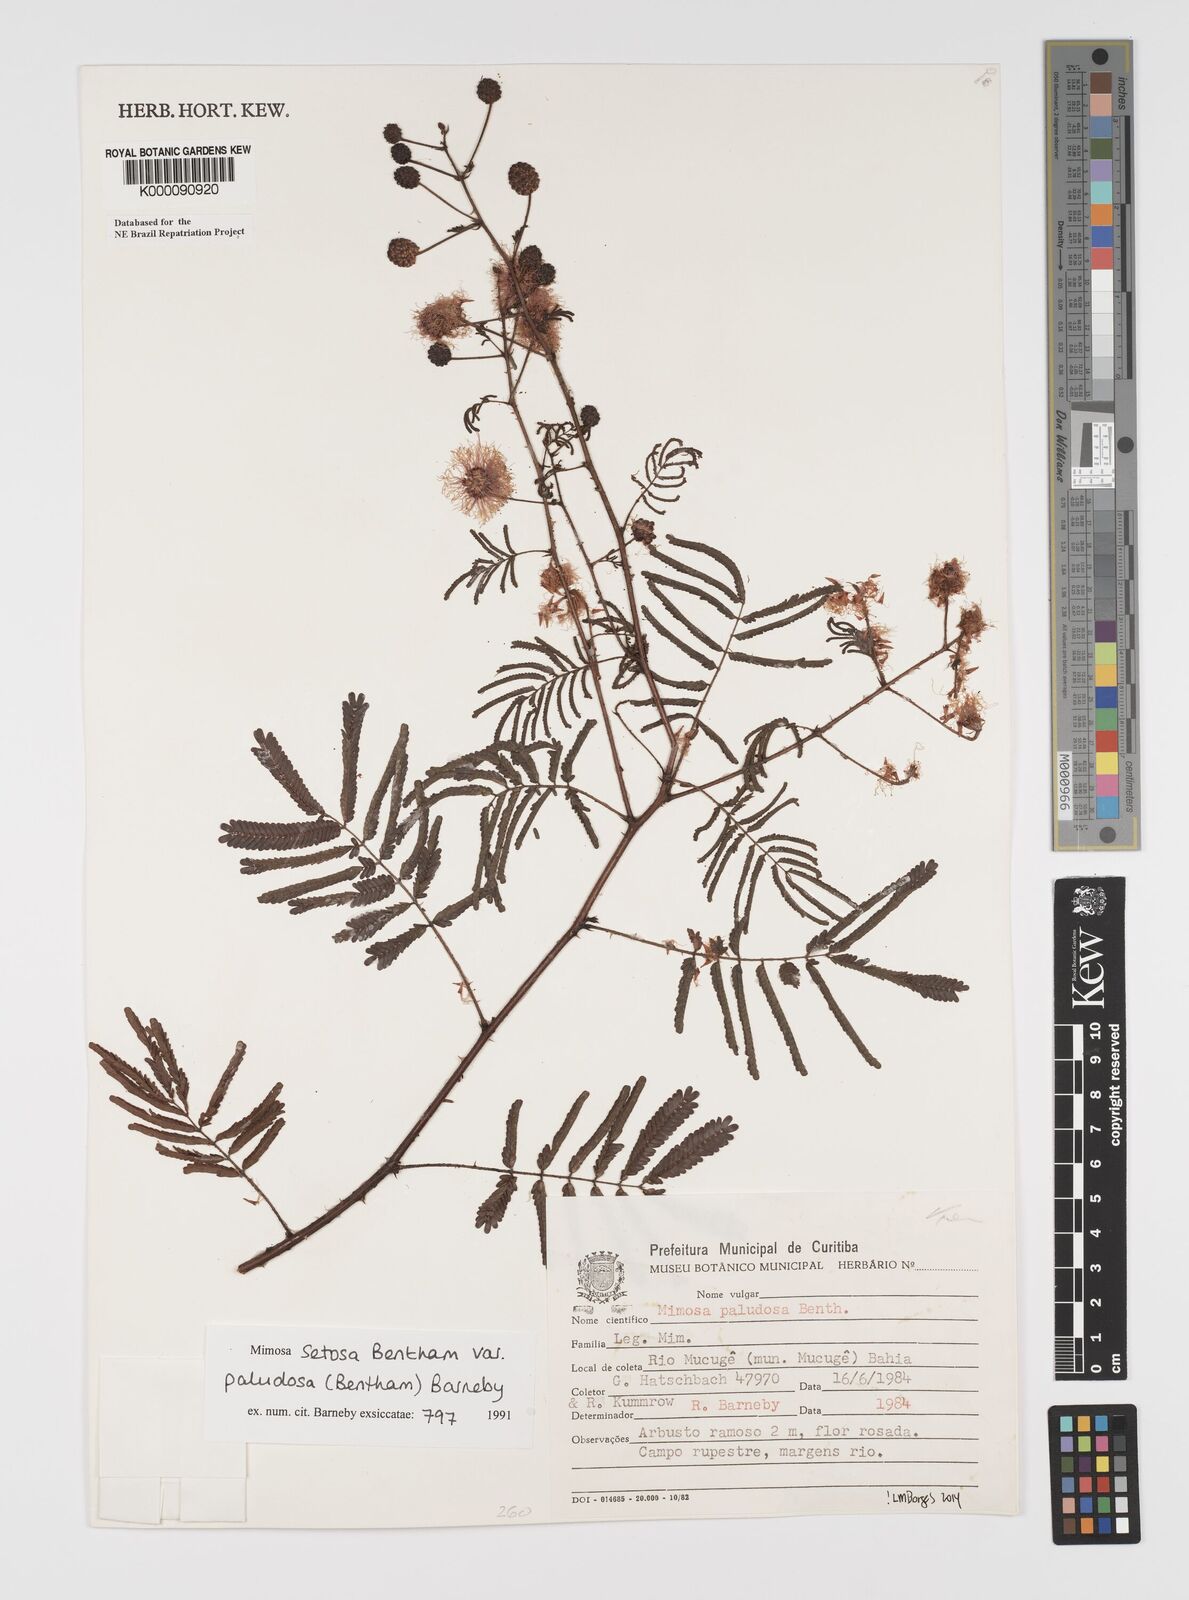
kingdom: Plantae
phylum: Tracheophyta
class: Magnoliopsida
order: Fabales
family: Fabaceae
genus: Mimosa
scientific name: Mimosa paludosa
